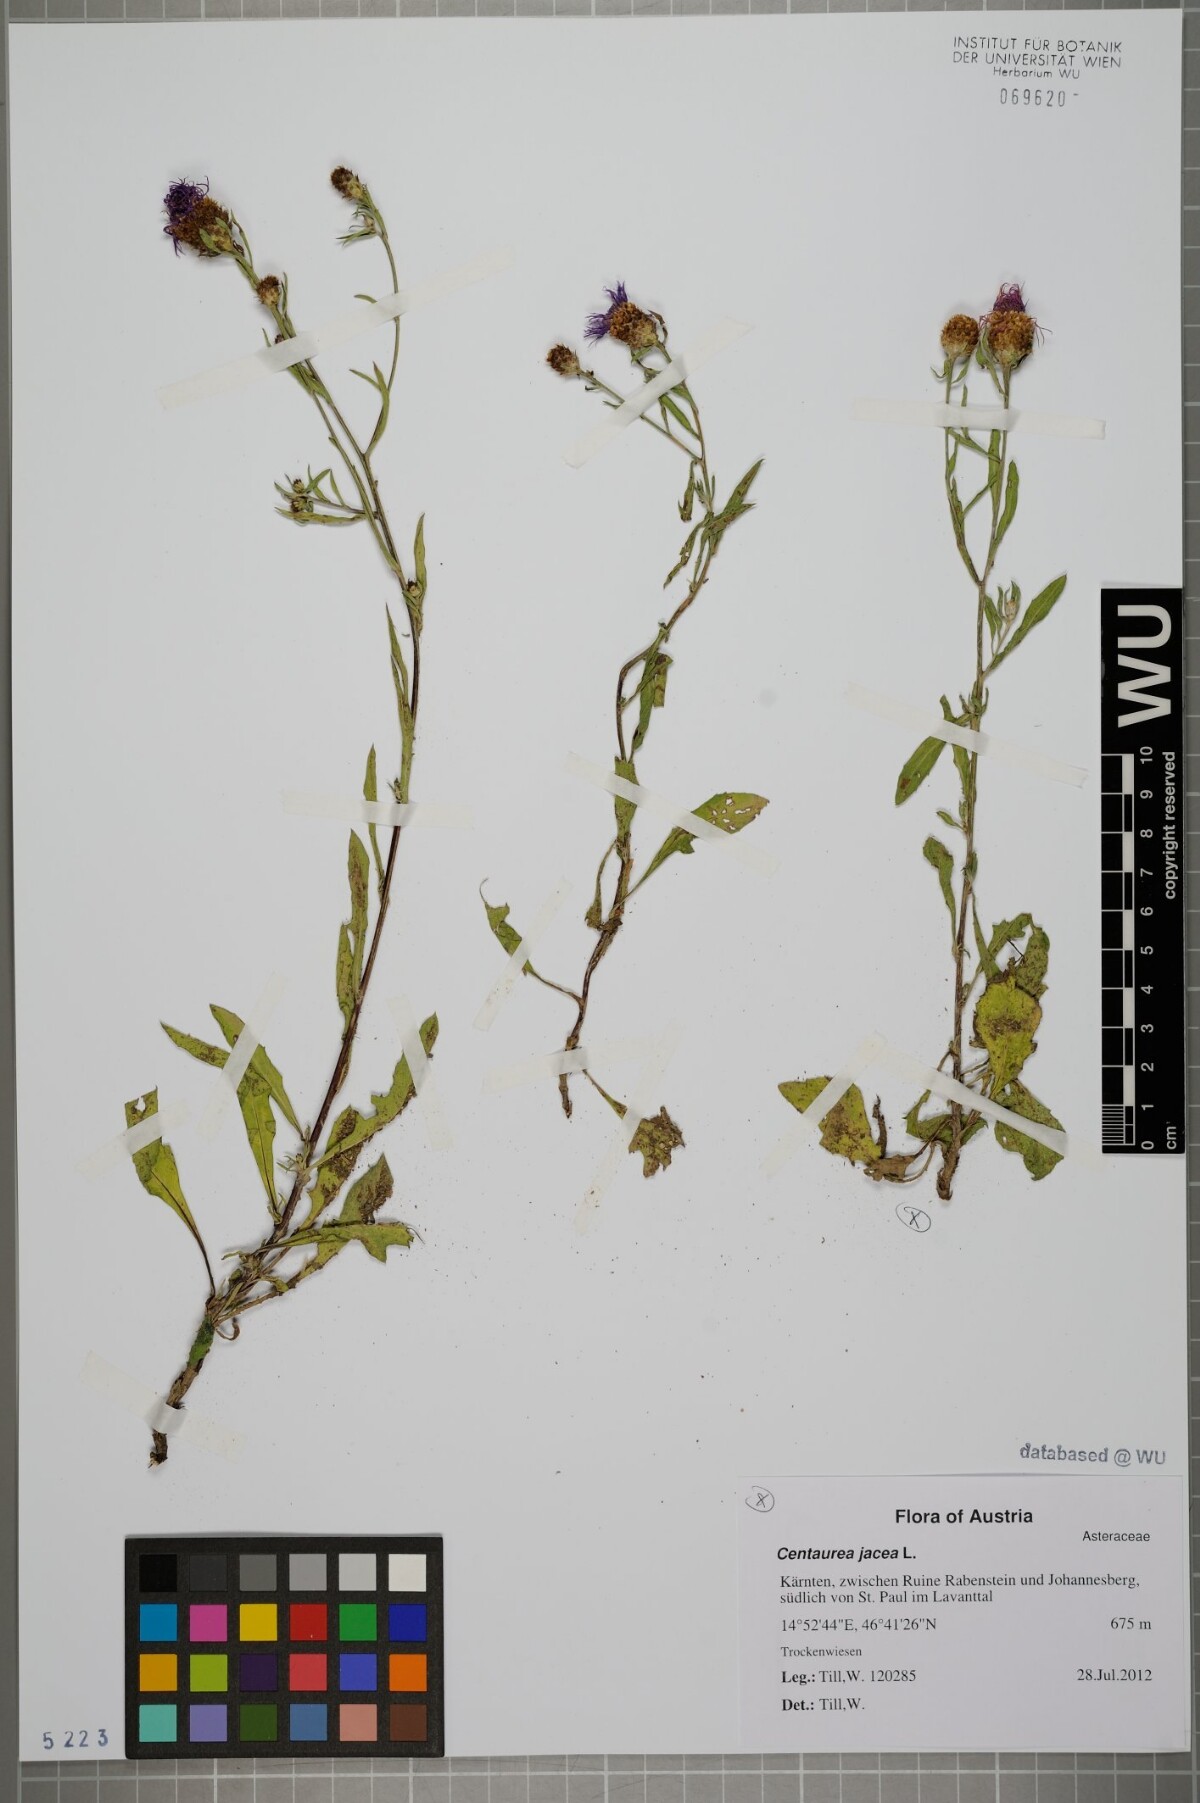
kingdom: Plantae
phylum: Tracheophyta
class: Magnoliopsida
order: Asterales
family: Asteraceae
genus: Centaurea
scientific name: Centaurea jacea
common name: Brown knapweed
